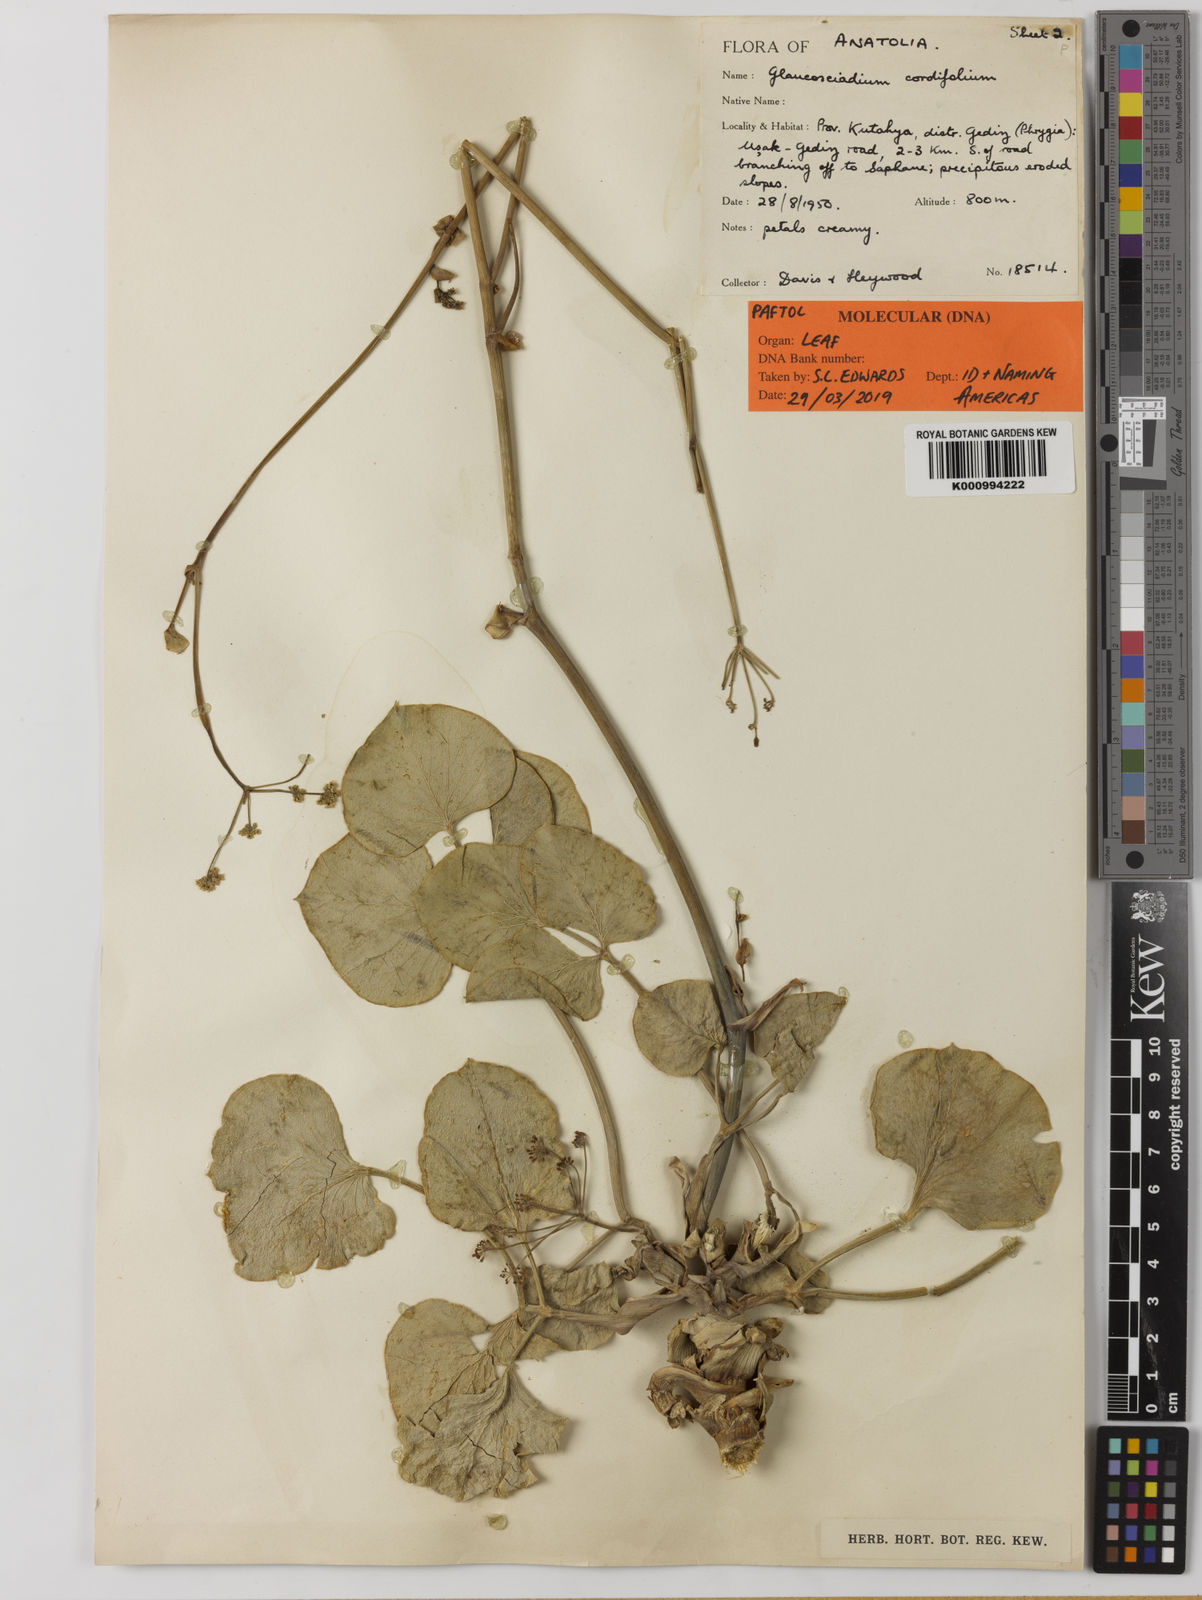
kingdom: Plantae
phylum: Tracheophyta
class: Magnoliopsida
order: Apiales
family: Apiaceae
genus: Glaucosciadium
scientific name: Glaucosciadium cordifolium
